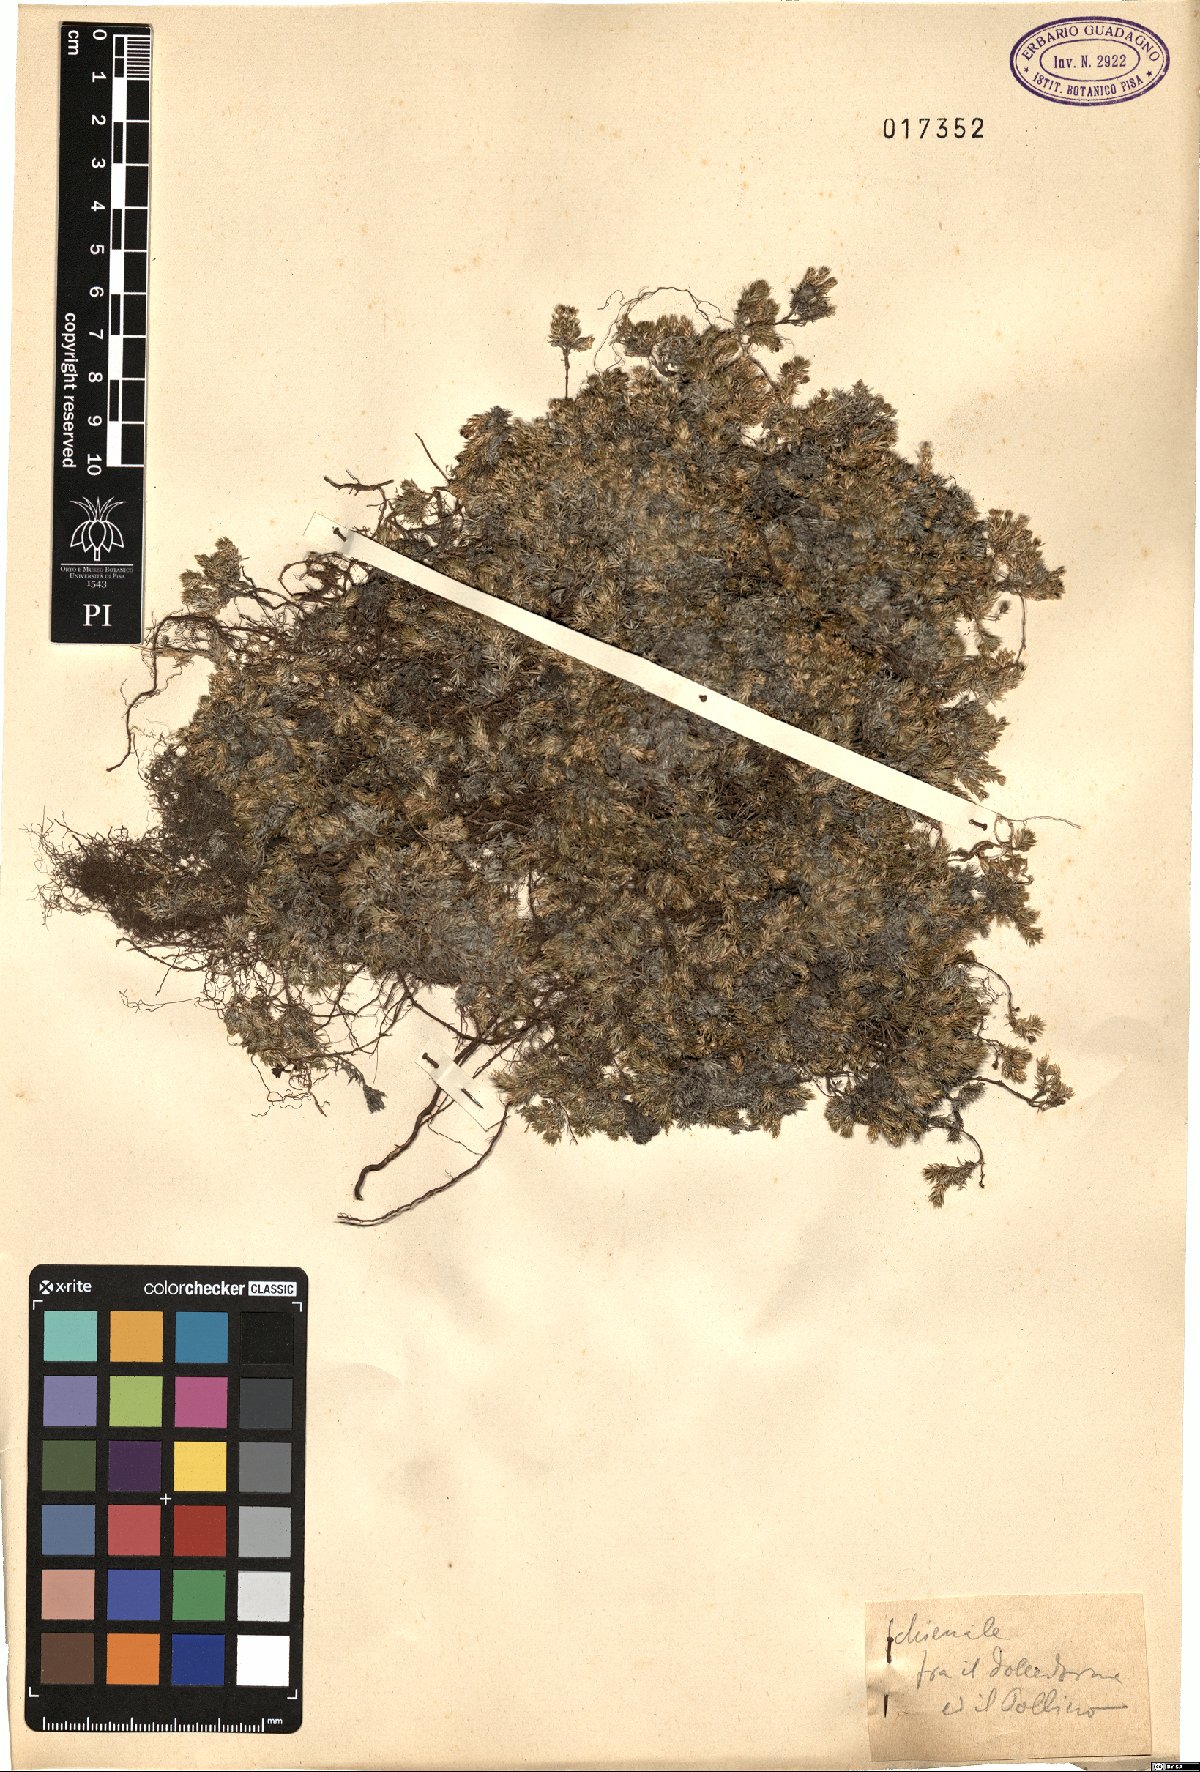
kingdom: Plantae
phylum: Tracheophyta
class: Magnoliopsida
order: Gentianales
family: Rubiaceae
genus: Galium
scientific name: Galium
